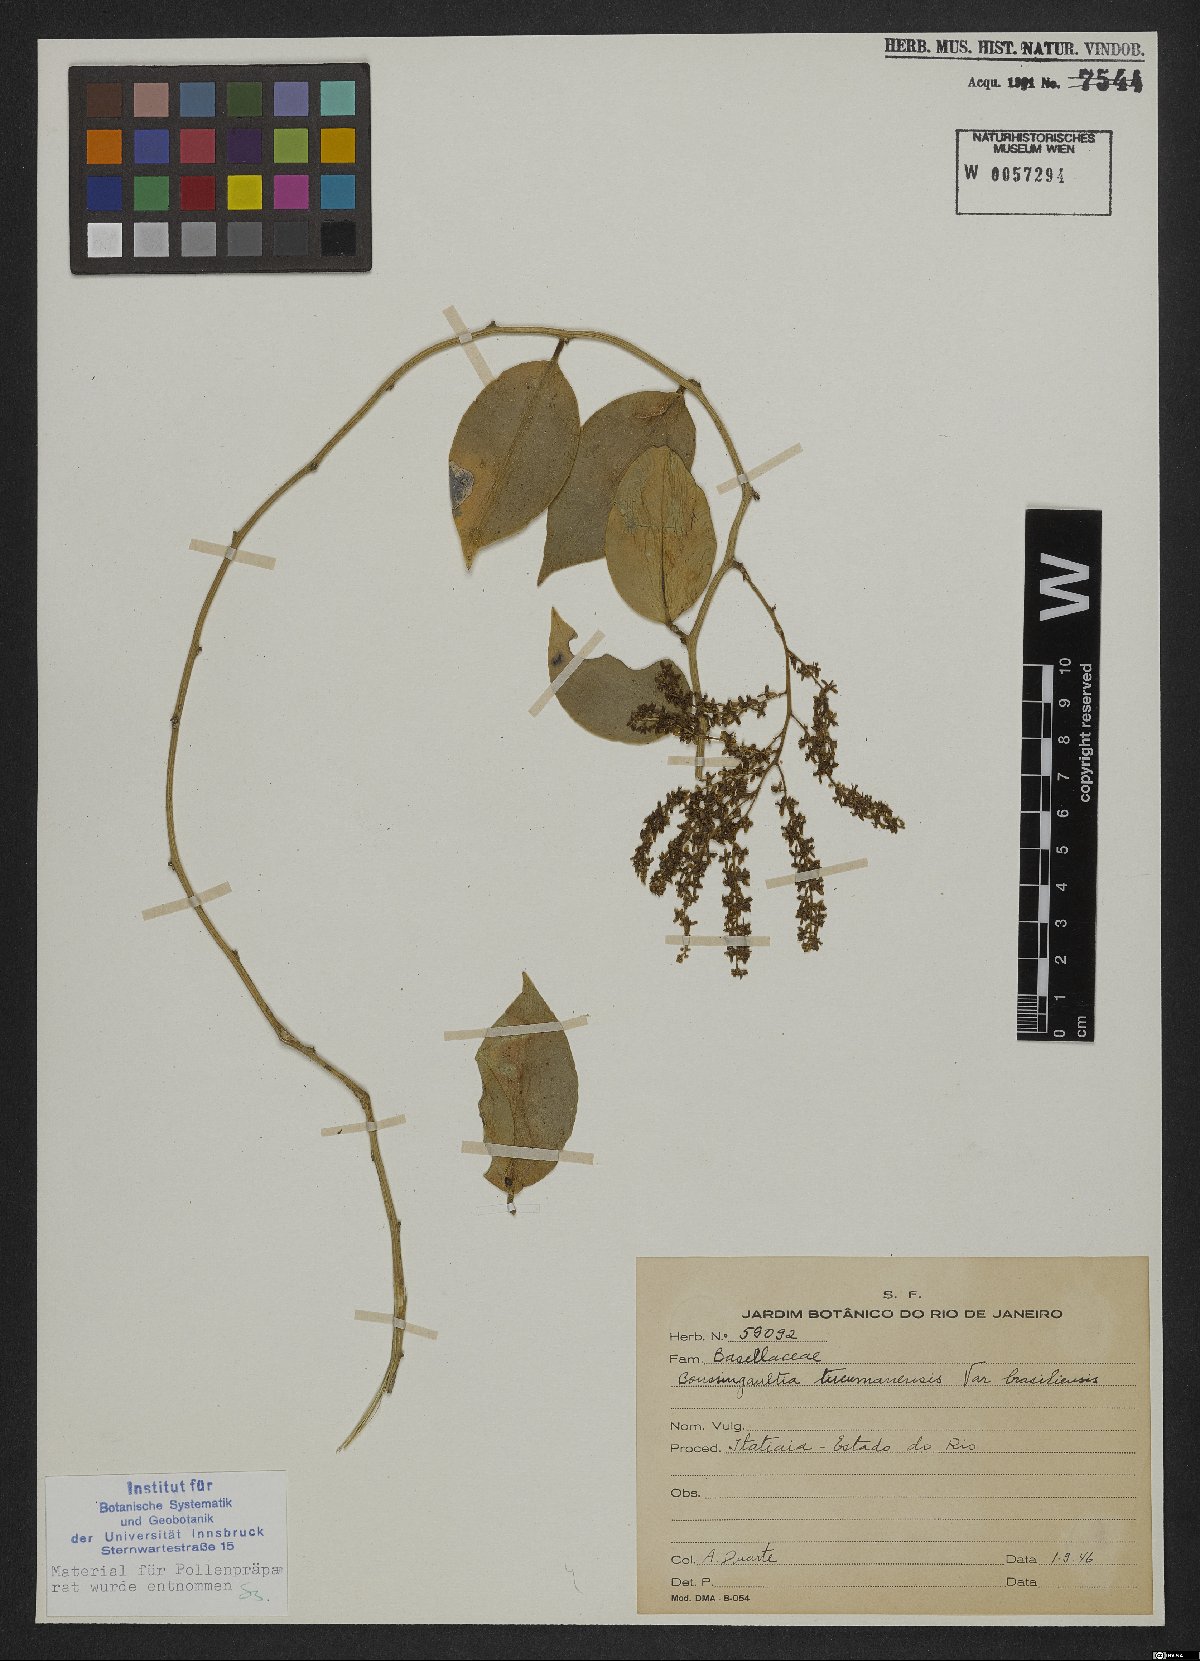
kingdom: Plantae
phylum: Tracheophyta
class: Magnoliopsida
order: Caryophyllales
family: Basellaceae
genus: Anredera
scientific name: Anredera tucumanensis
